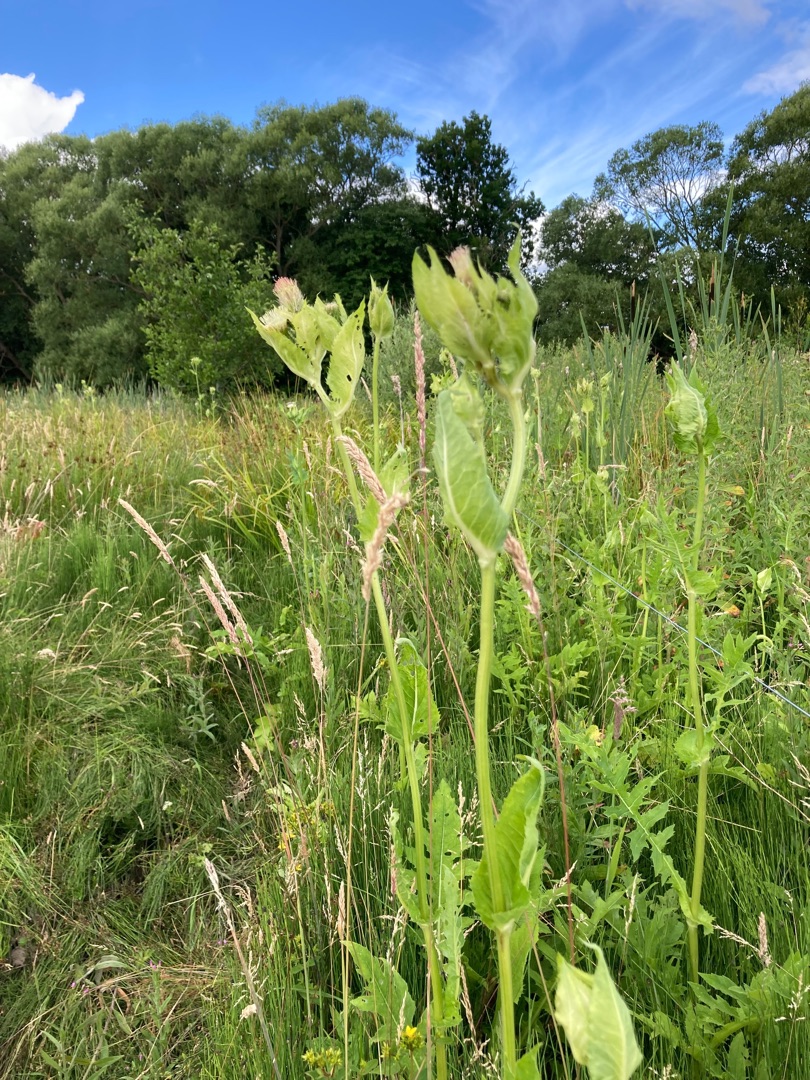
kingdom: Plantae
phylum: Tracheophyta
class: Magnoliopsida
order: Asterales
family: Asteraceae
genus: Cirsium
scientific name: Cirsium oleraceum
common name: Kål-tidsel
